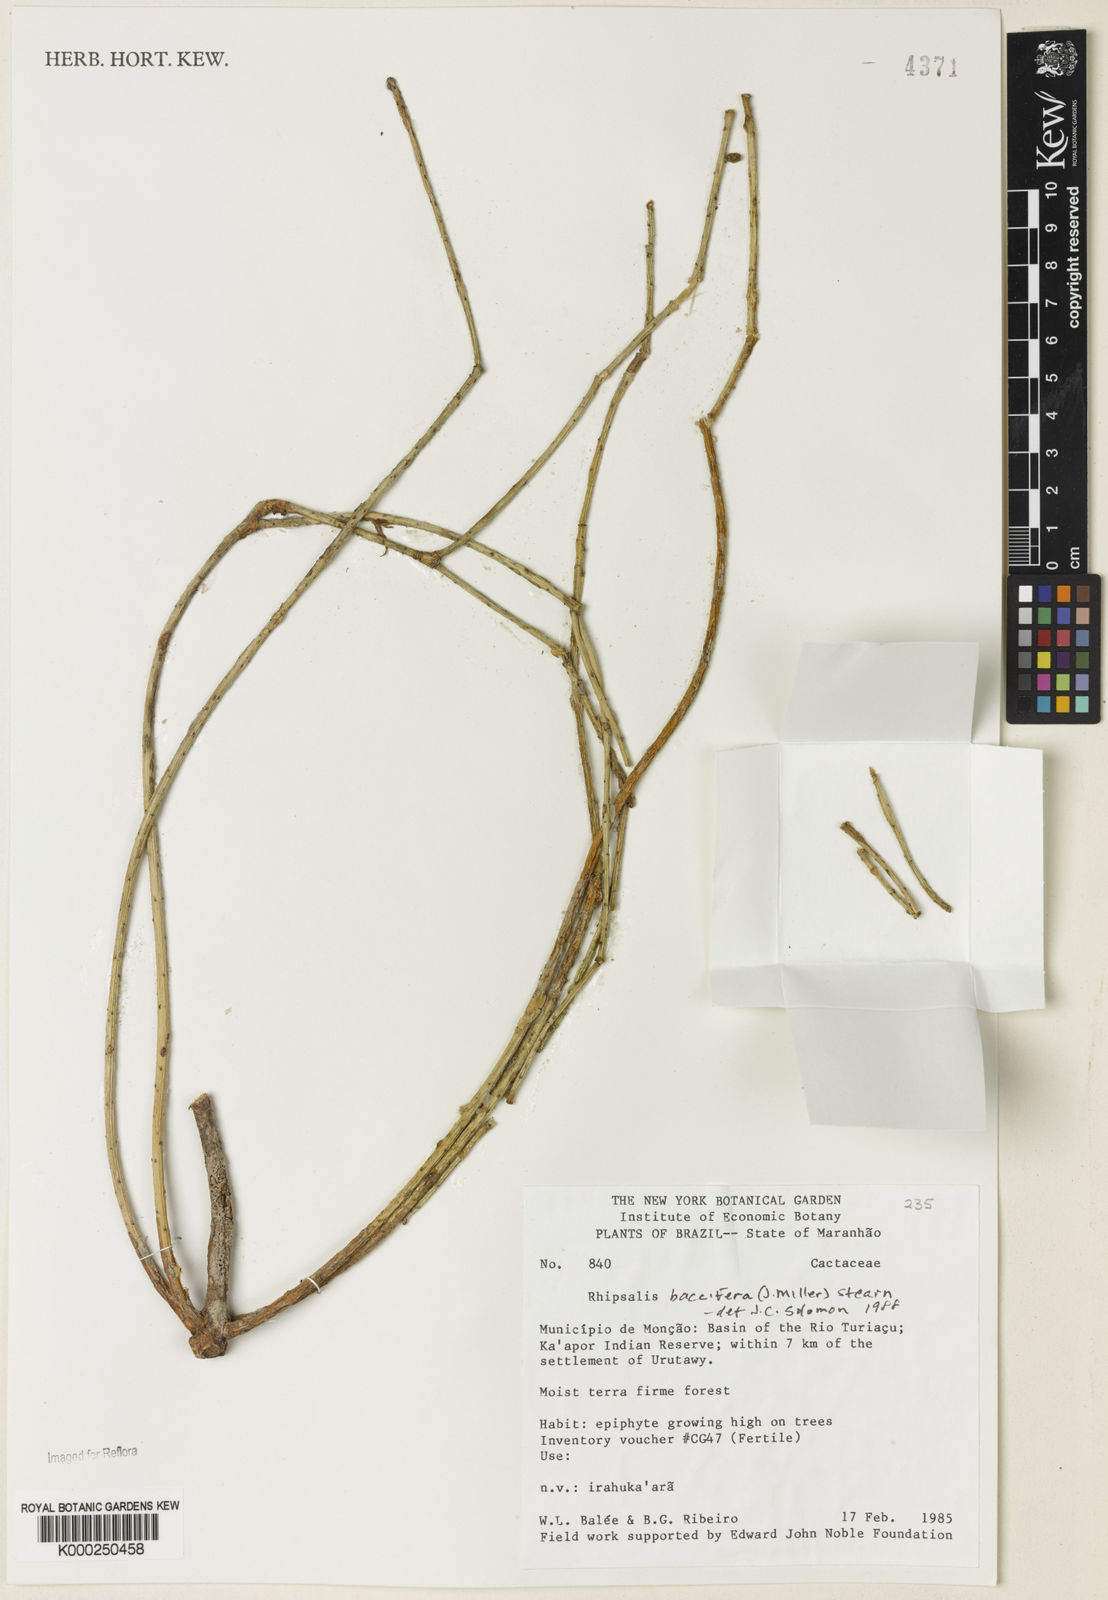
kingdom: Plantae
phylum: Tracheophyta
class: Magnoliopsida
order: Caryophyllales
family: Cactaceae
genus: Rhipsalis
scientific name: Rhipsalis baccifera
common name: Mistletoe cactus
